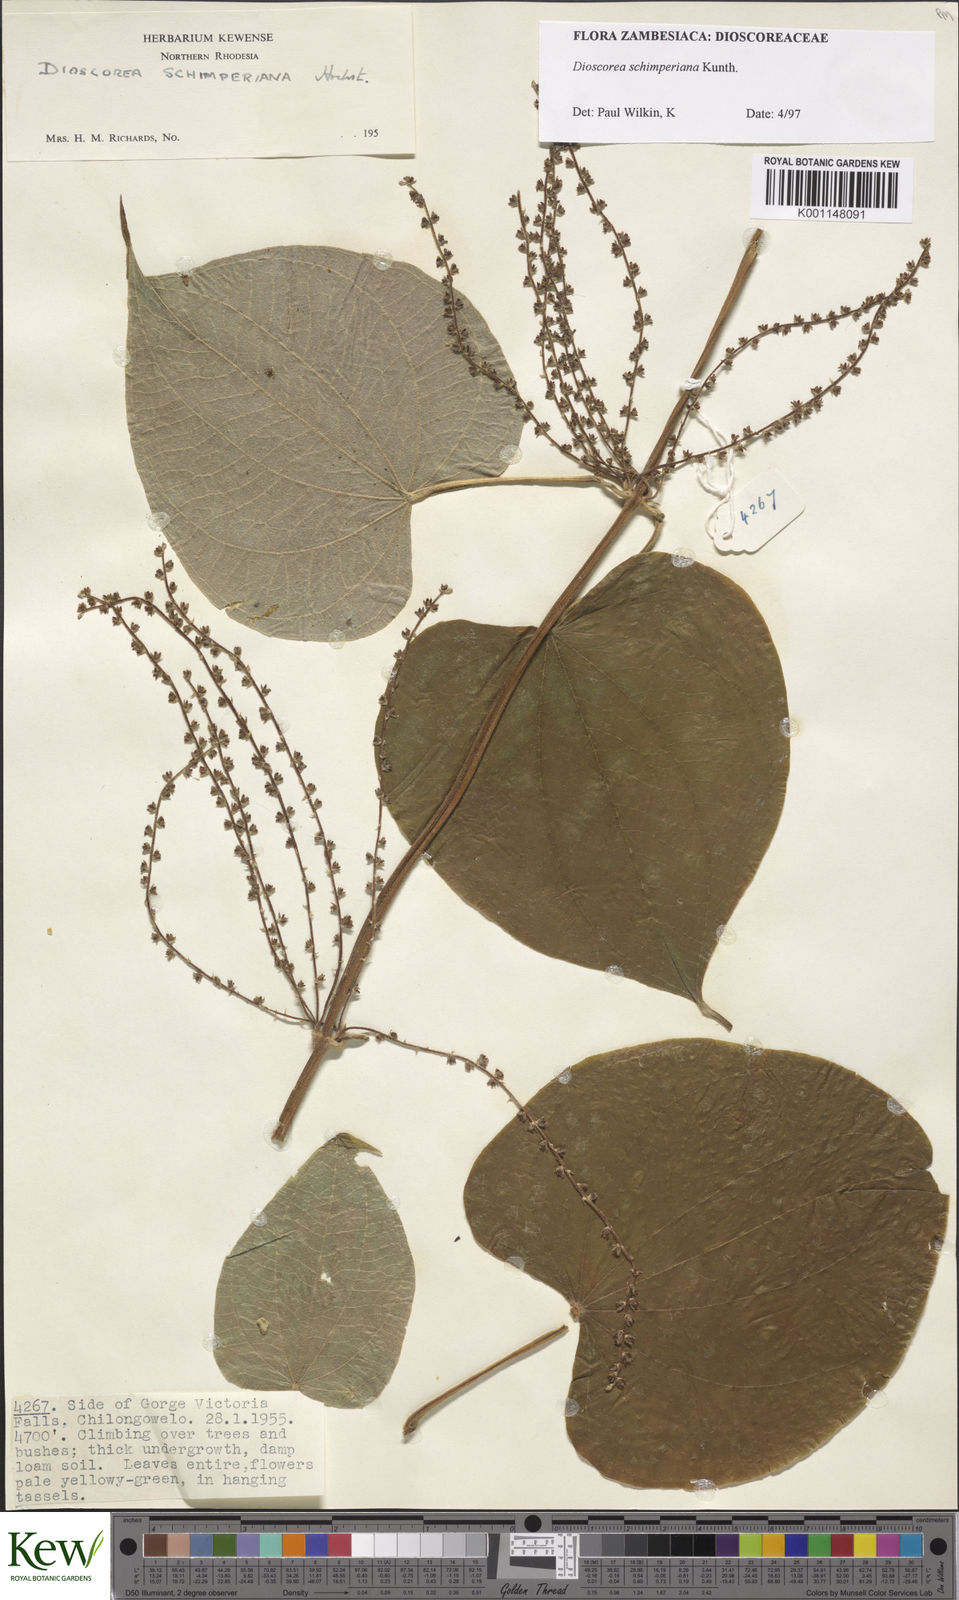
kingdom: Plantae
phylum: Tracheophyta
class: Liliopsida
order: Dioscoreales
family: Dioscoreaceae
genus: Dioscorea
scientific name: Dioscorea schimperiana
